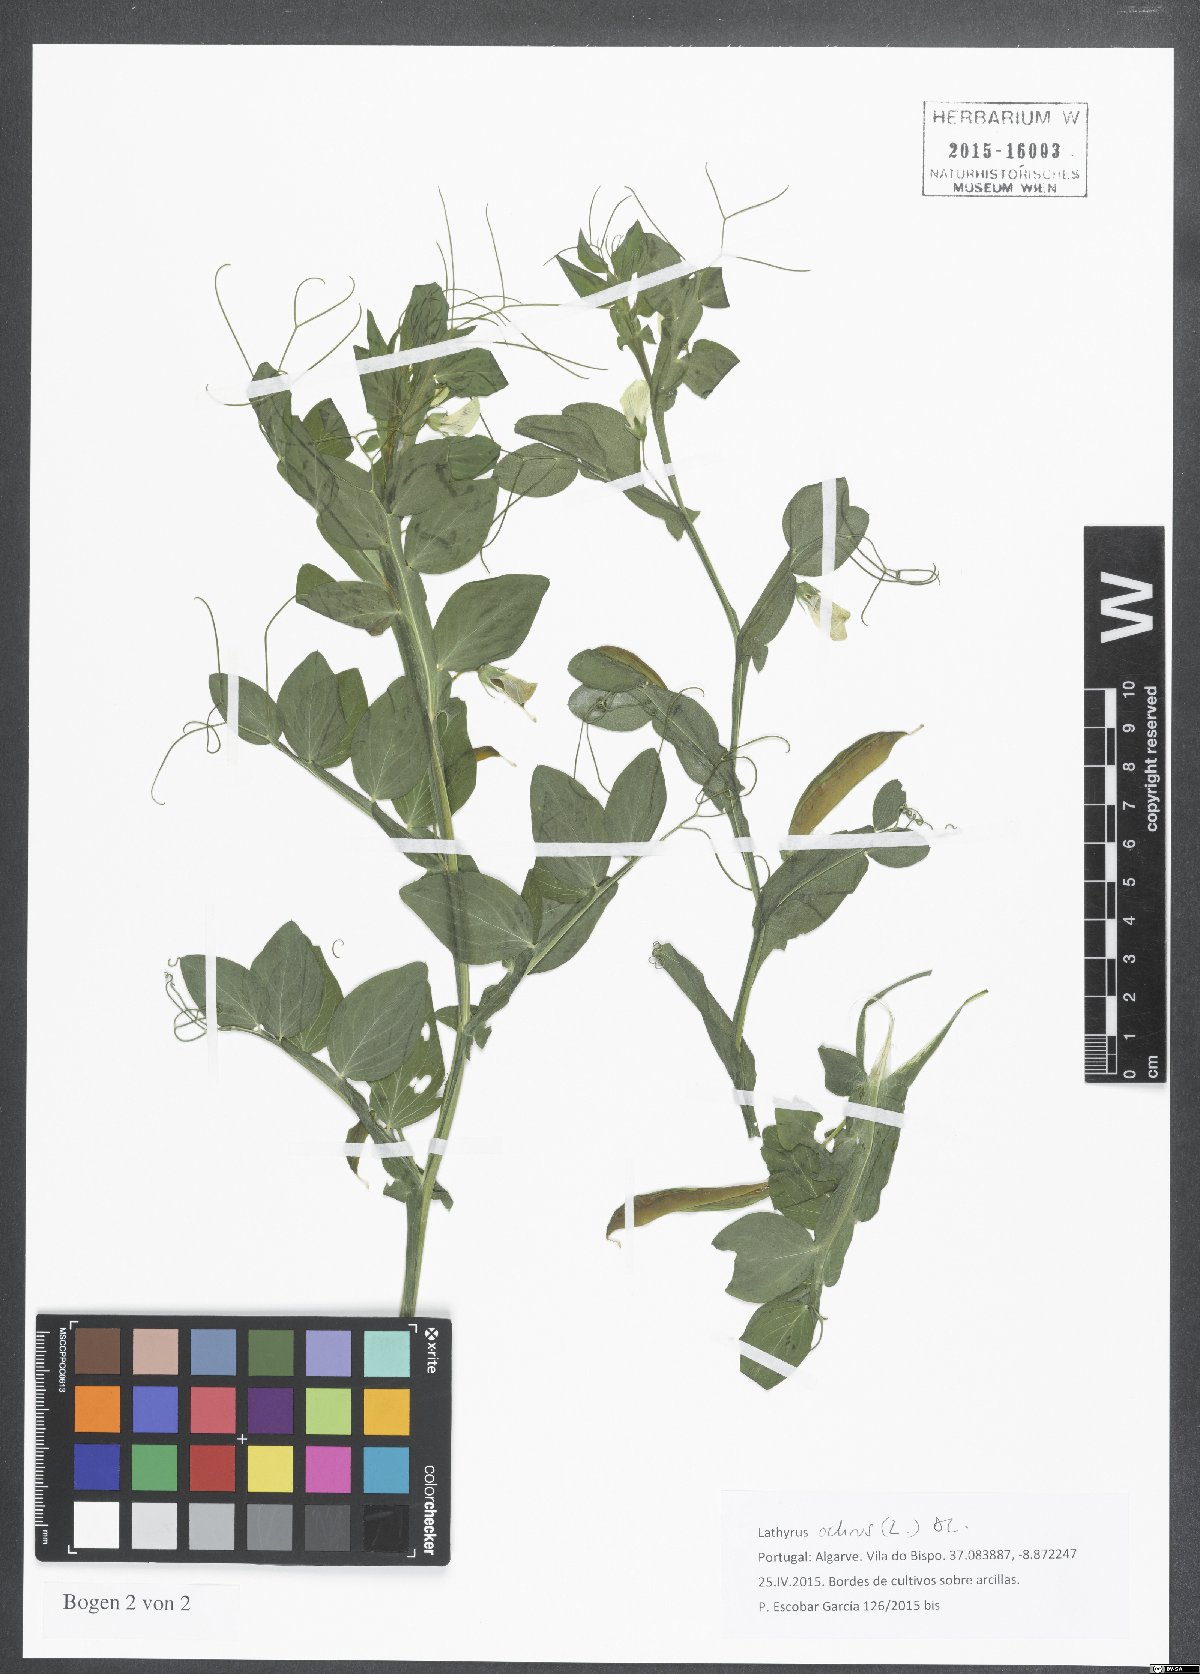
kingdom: Plantae
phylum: Tracheophyta
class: Magnoliopsida
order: Fabales
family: Fabaceae
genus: Lathyrus
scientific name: Lathyrus ochrus
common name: Winged vetchling
